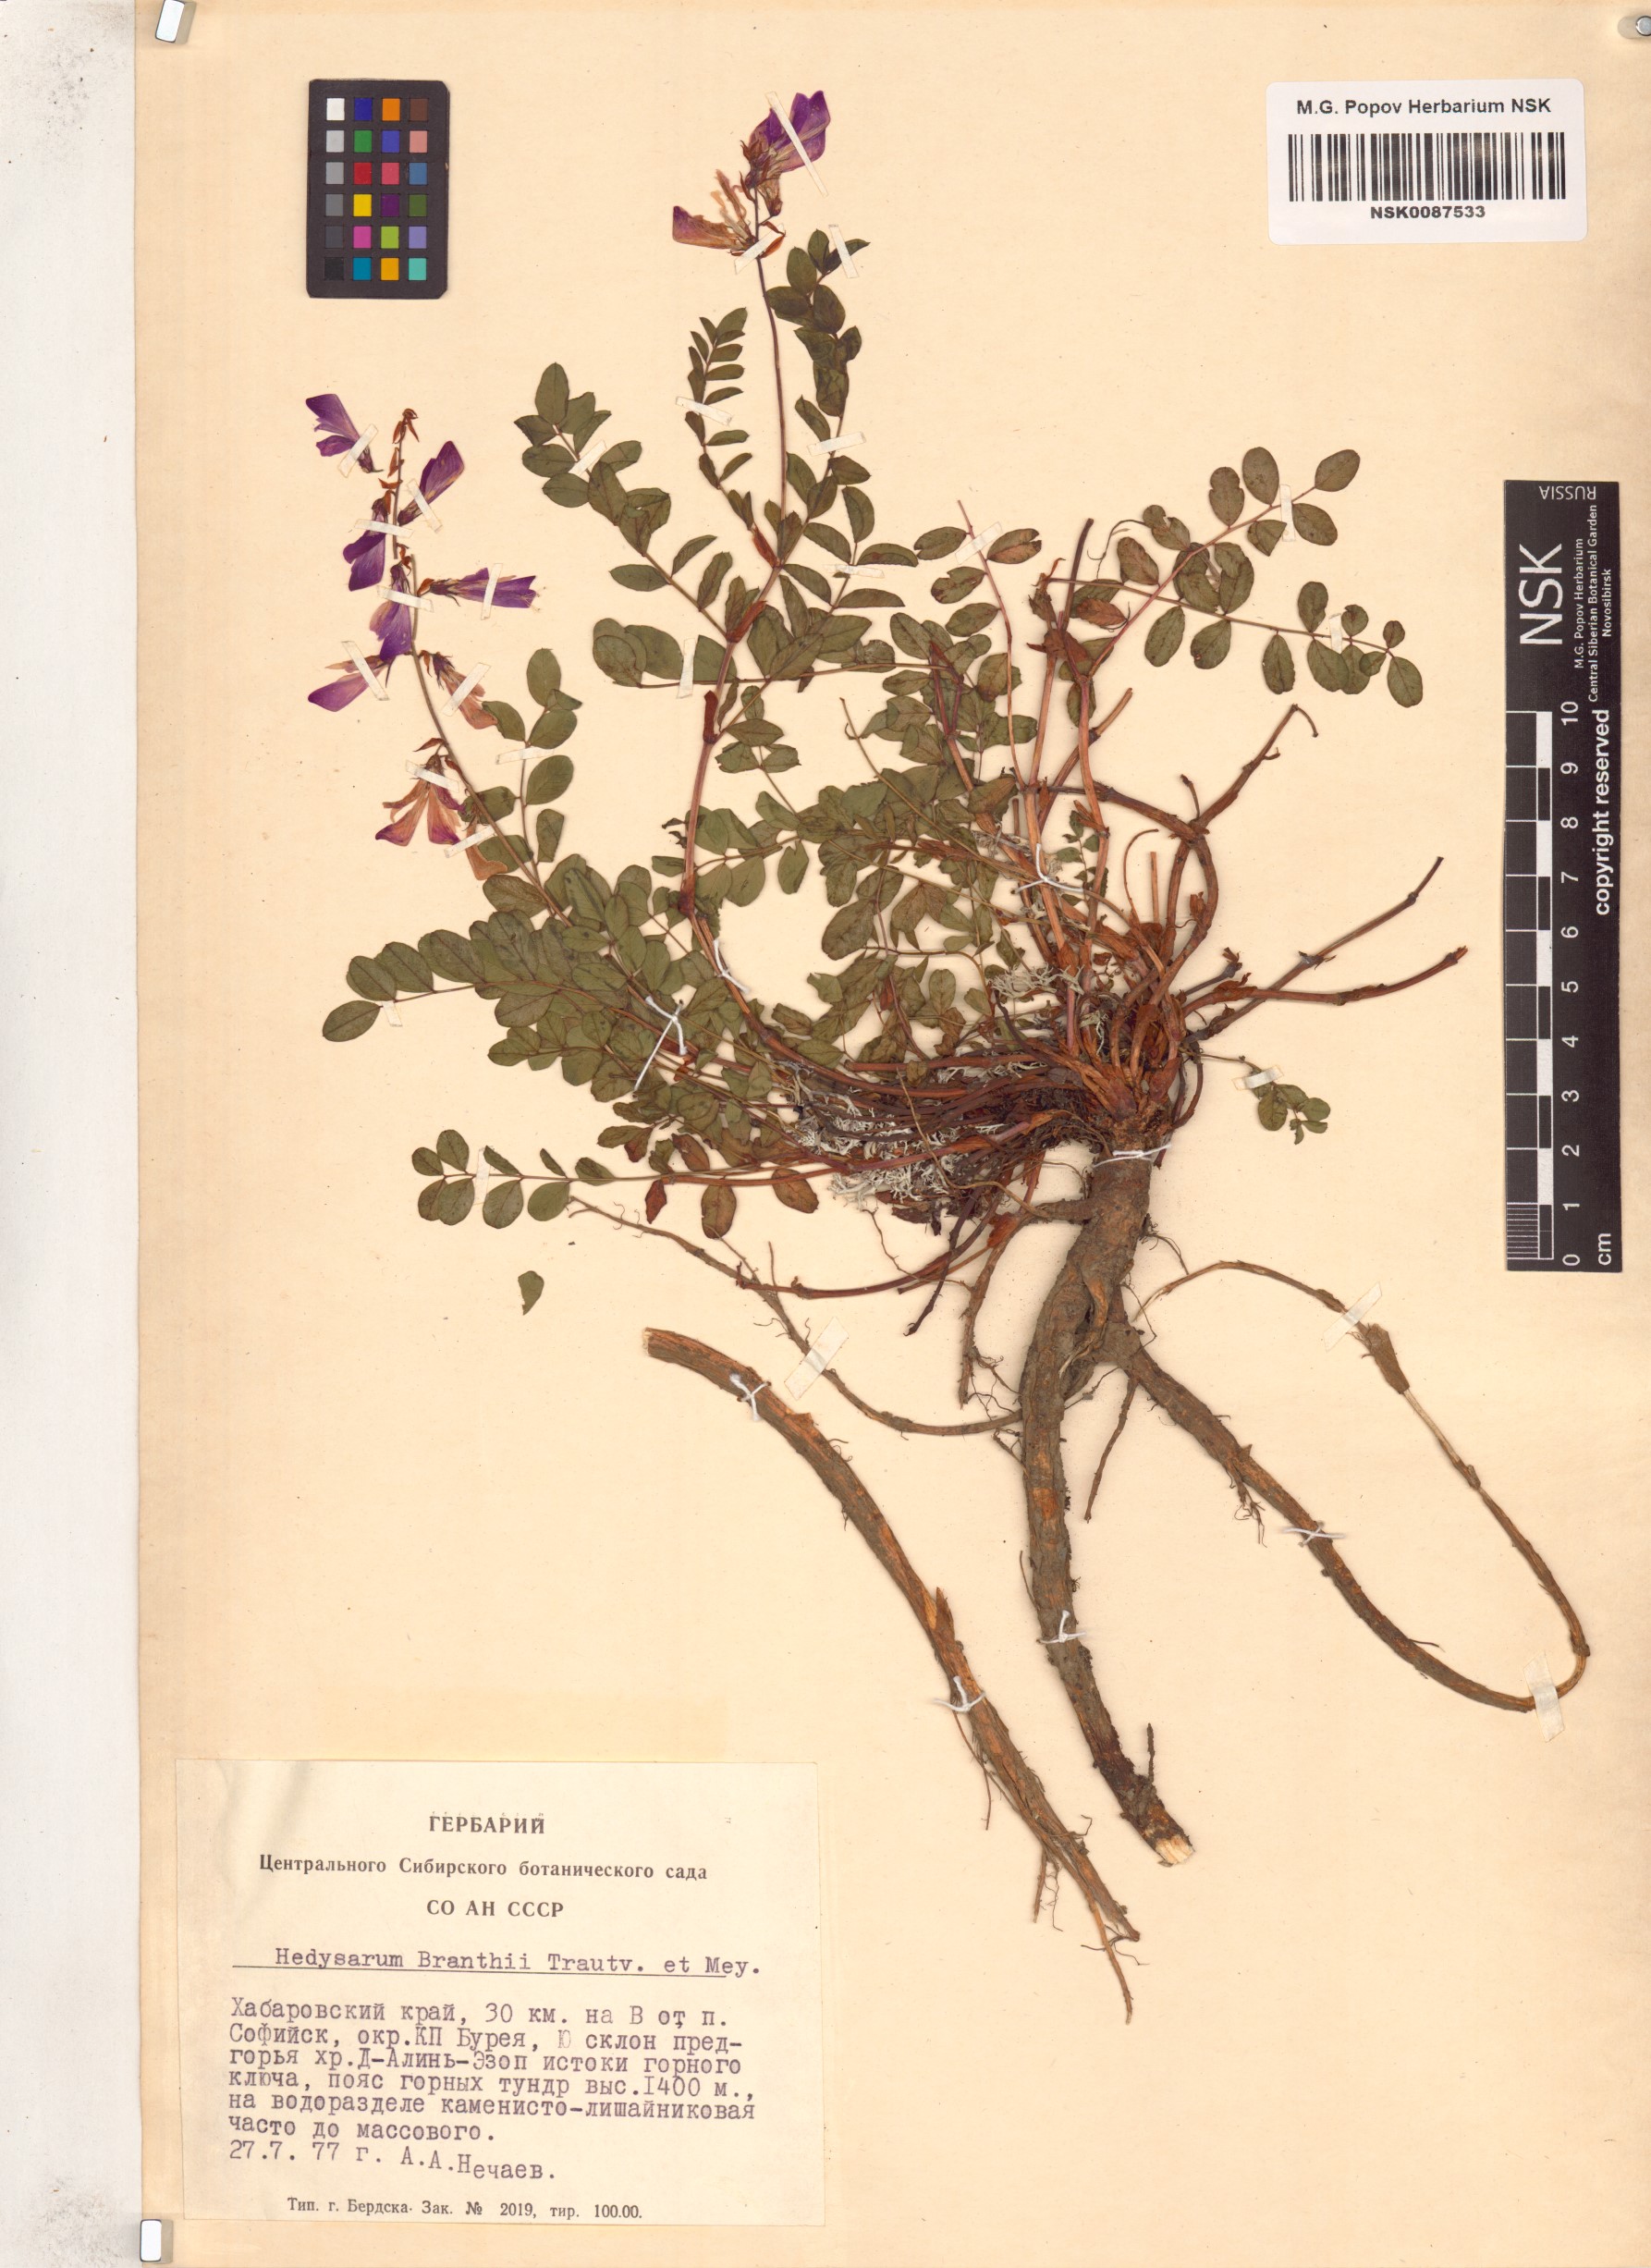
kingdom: Plantae
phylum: Tracheophyta
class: Magnoliopsida
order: Fabales
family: Fabaceae
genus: Hedysarum
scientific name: Hedysarum branthii
